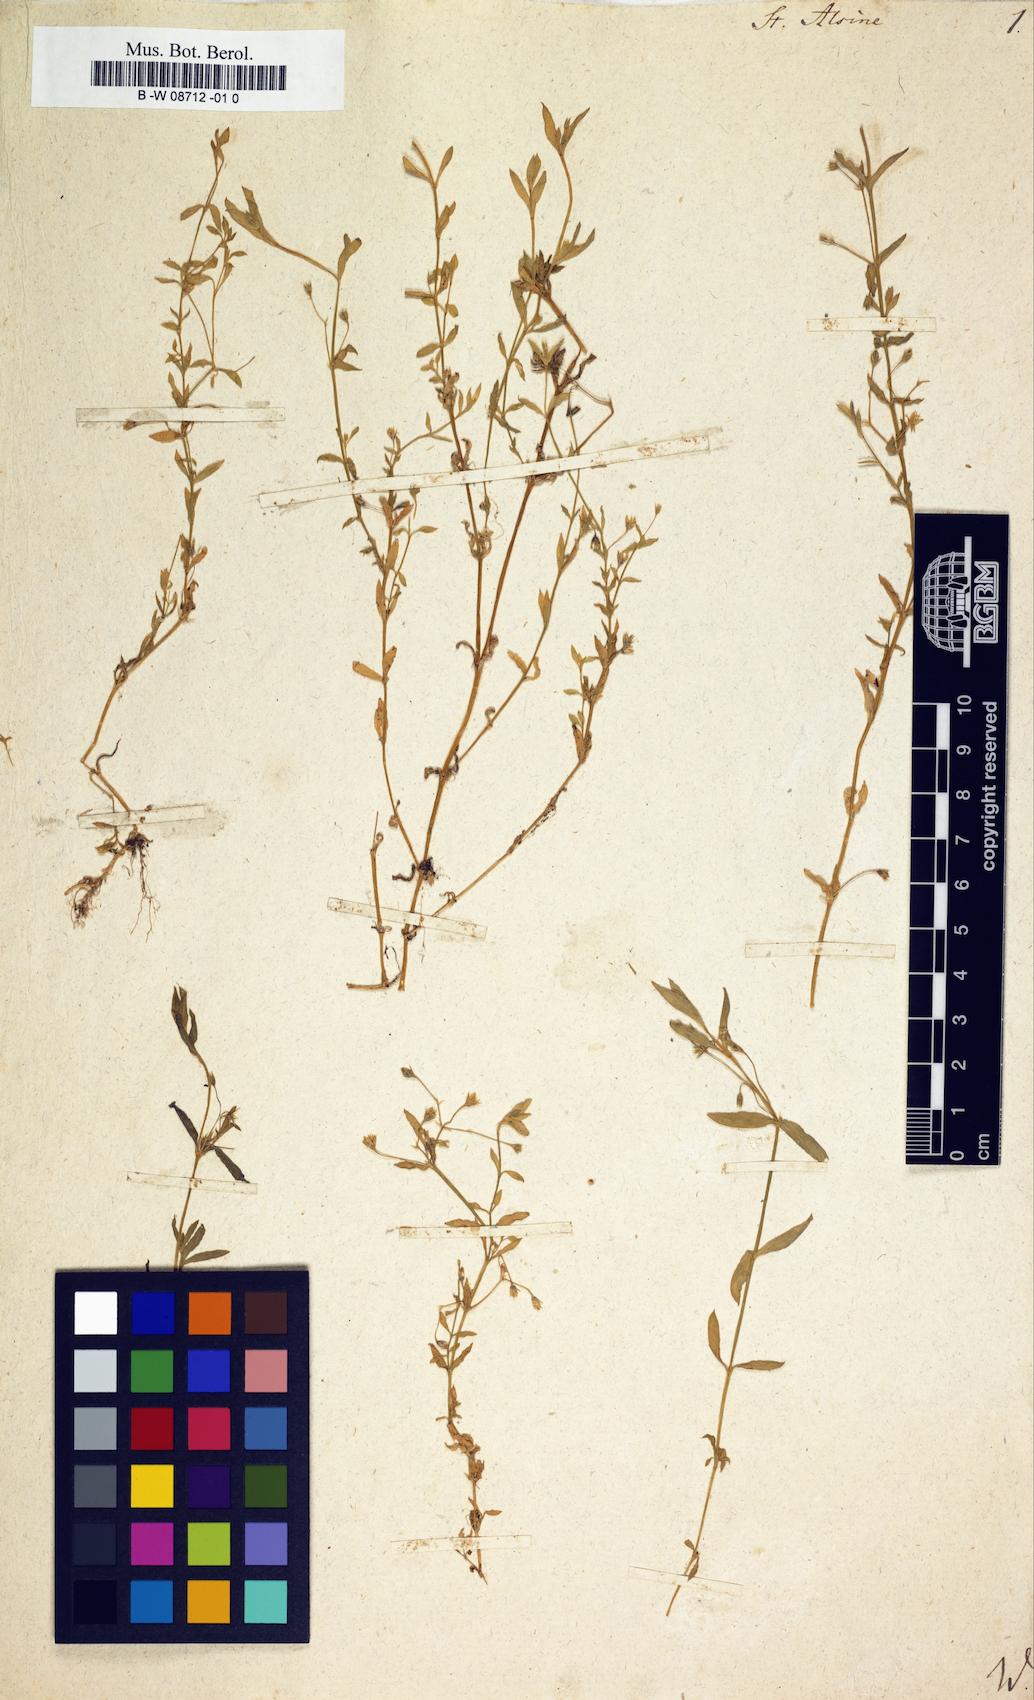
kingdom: Plantae
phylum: Tracheophyta
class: Magnoliopsida
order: Caryophyllales
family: Caryophyllaceae
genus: Stellaria
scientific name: Stellaria alsine
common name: Bog stitchwort
